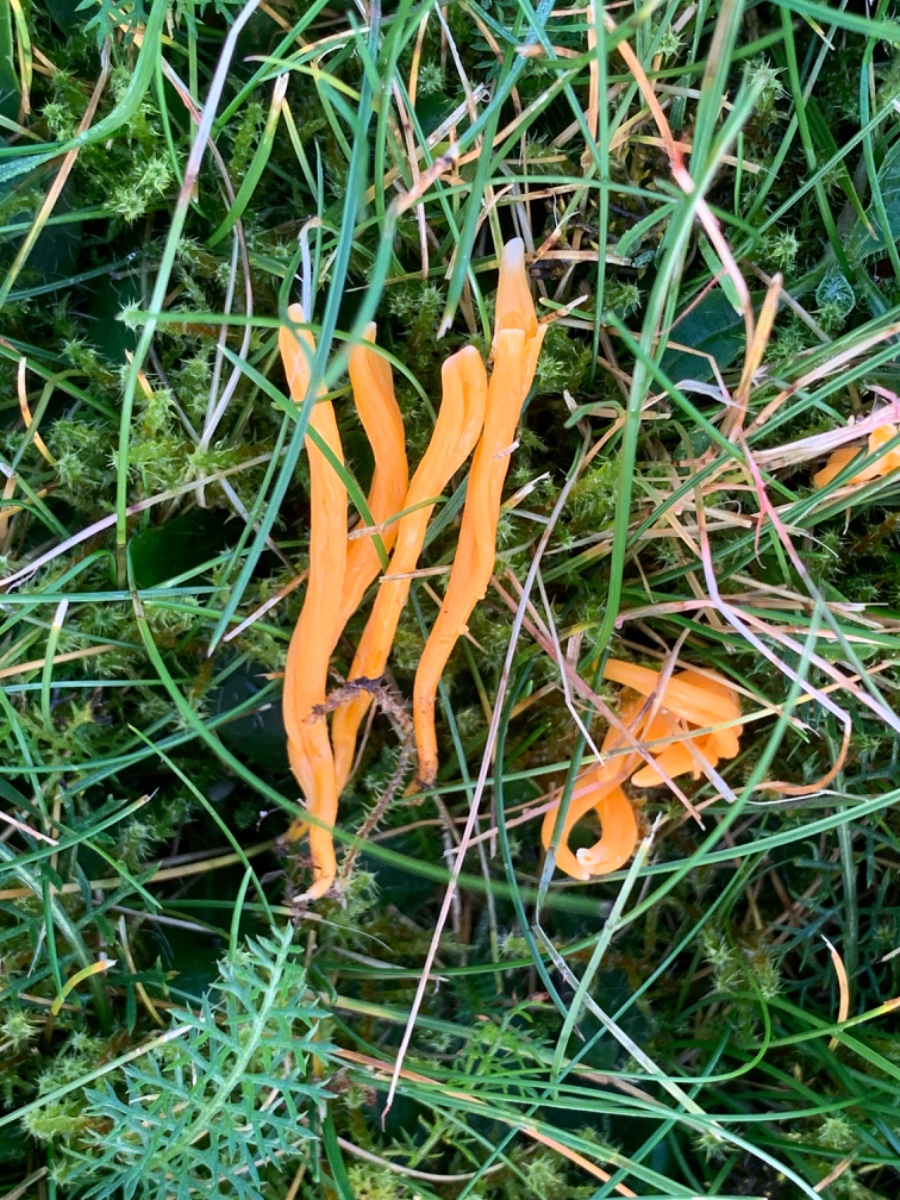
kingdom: Fungi
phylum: Basidiomycota
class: Agaricomycetes
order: Agaricales
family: Clavariaceae
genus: Clavulinopsis
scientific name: Clavulinopsis luteoalba
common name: abrikos-køllesvamp
